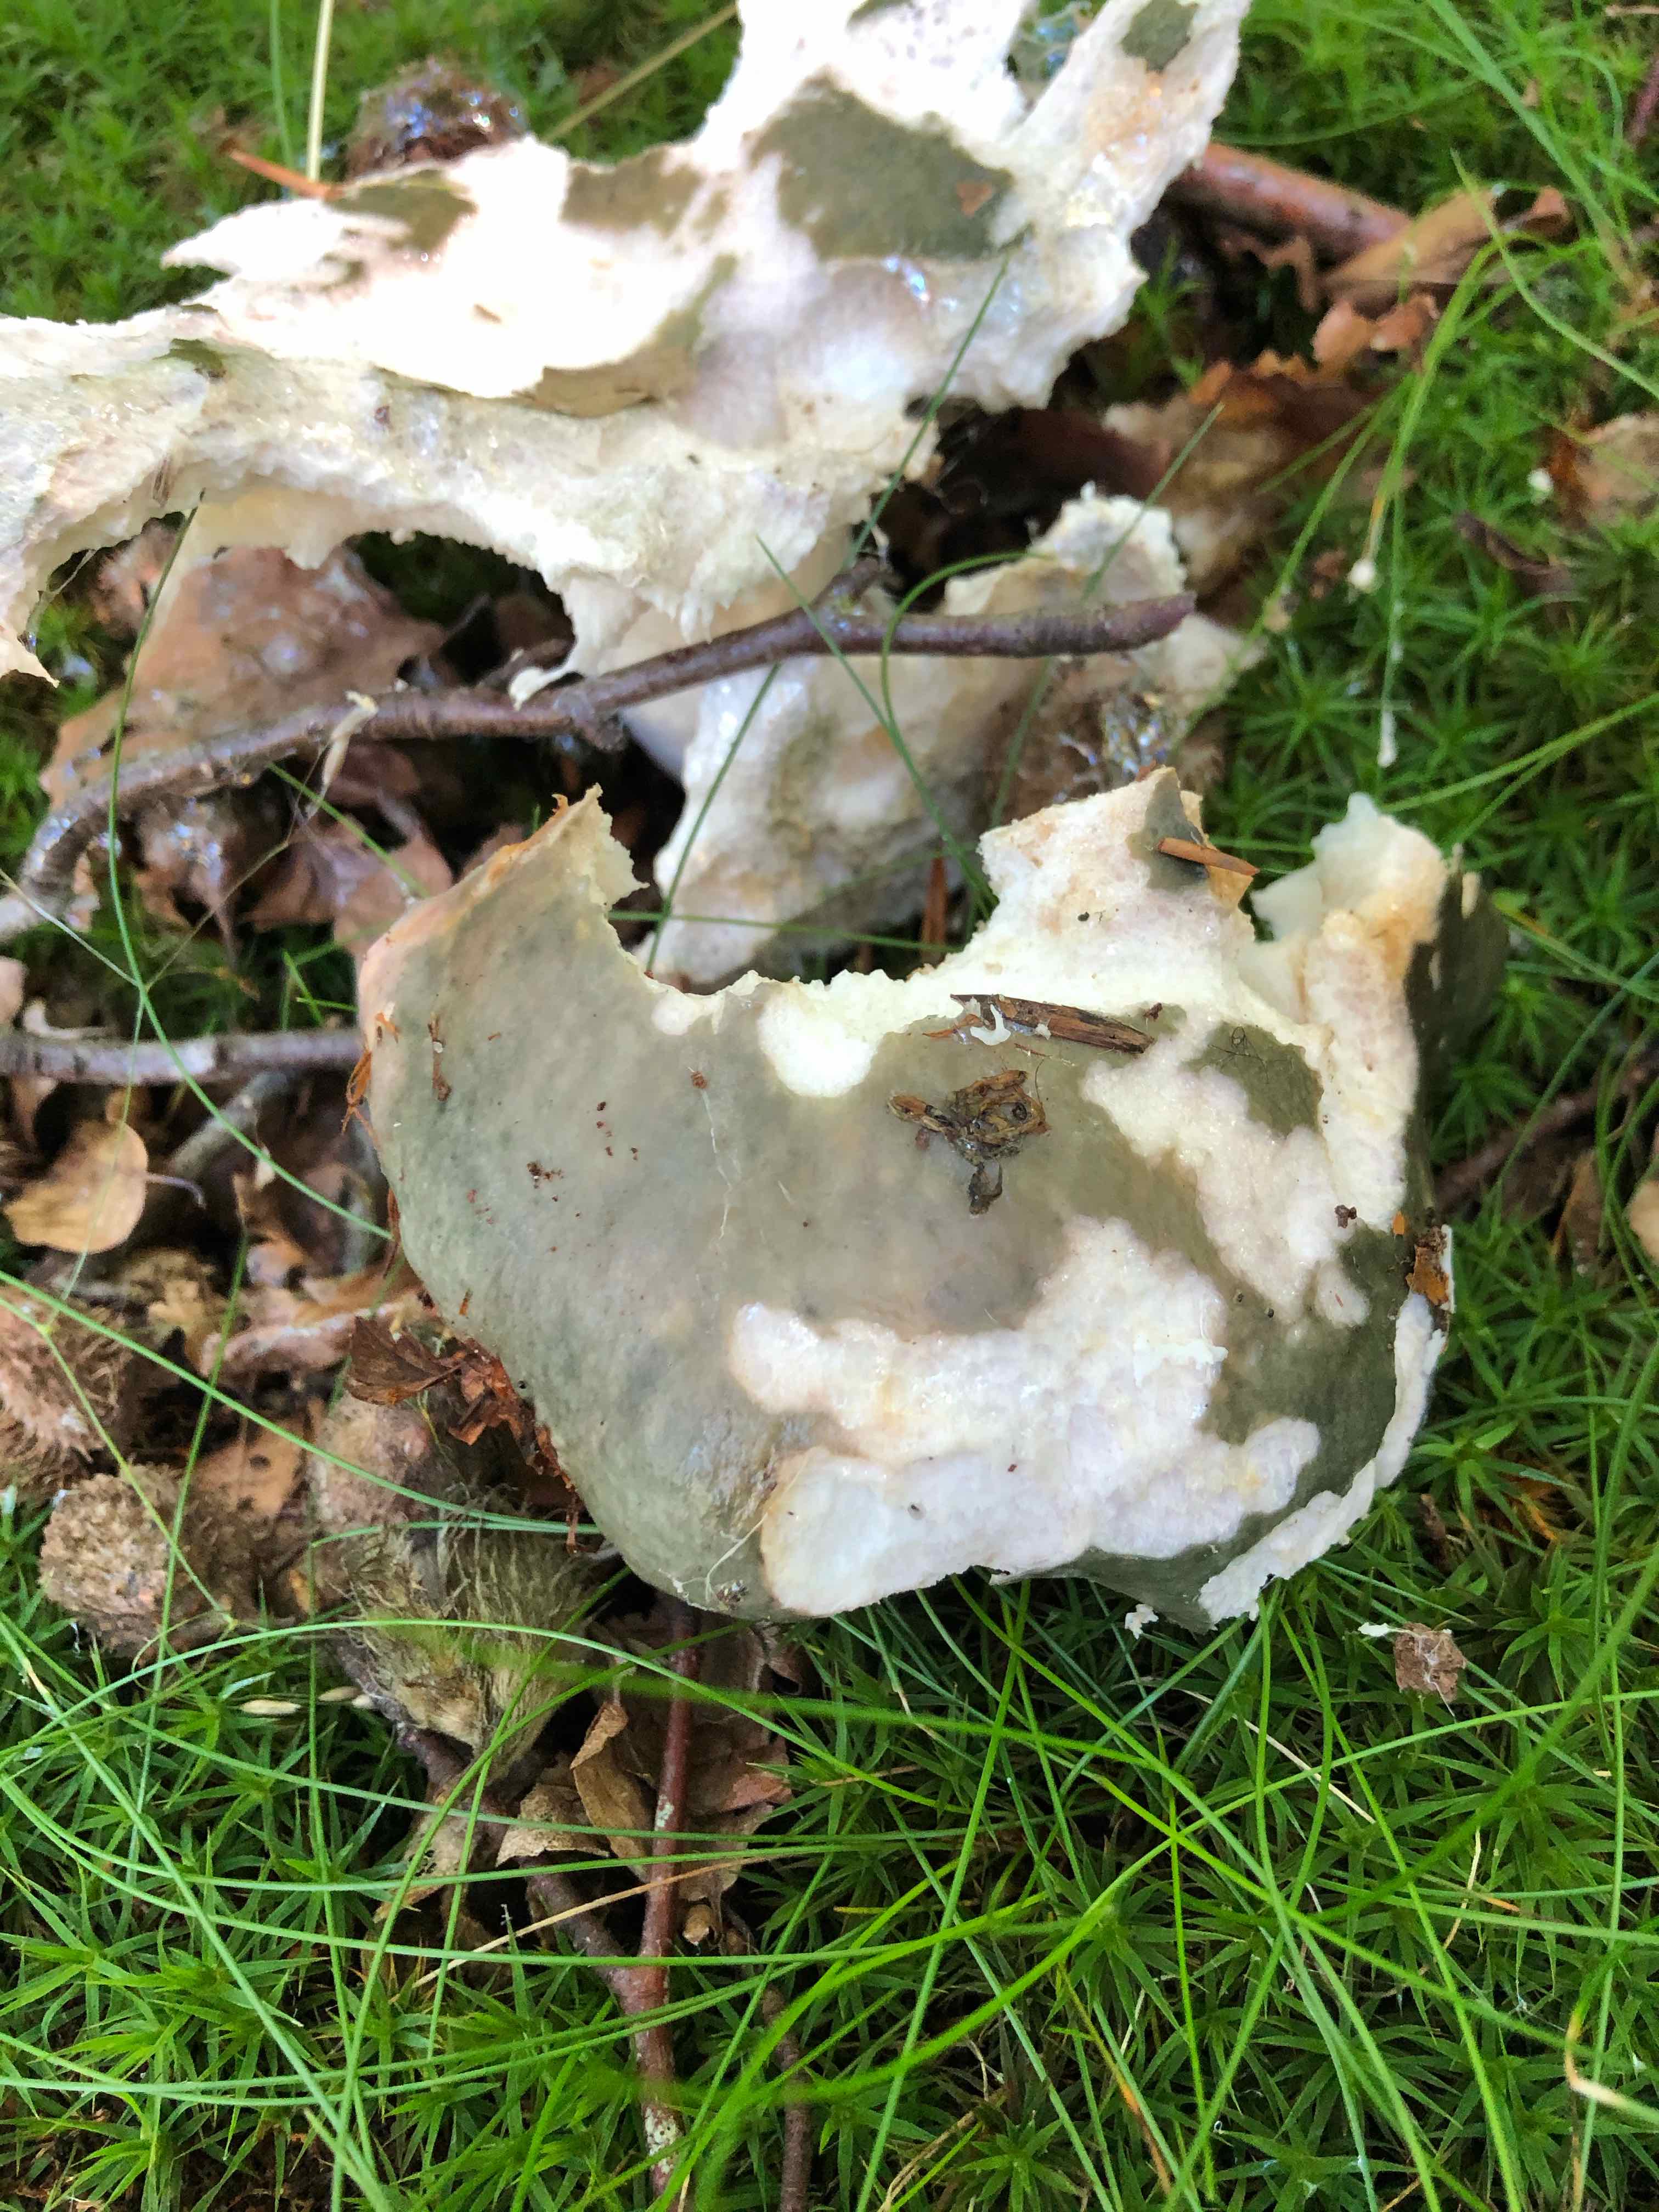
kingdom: Fungi
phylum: Basidiomycota
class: Agaricomycetes
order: Russulales
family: Russulaceae
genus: Russula
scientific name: Russula cyanoxantha
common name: broget skørhat
